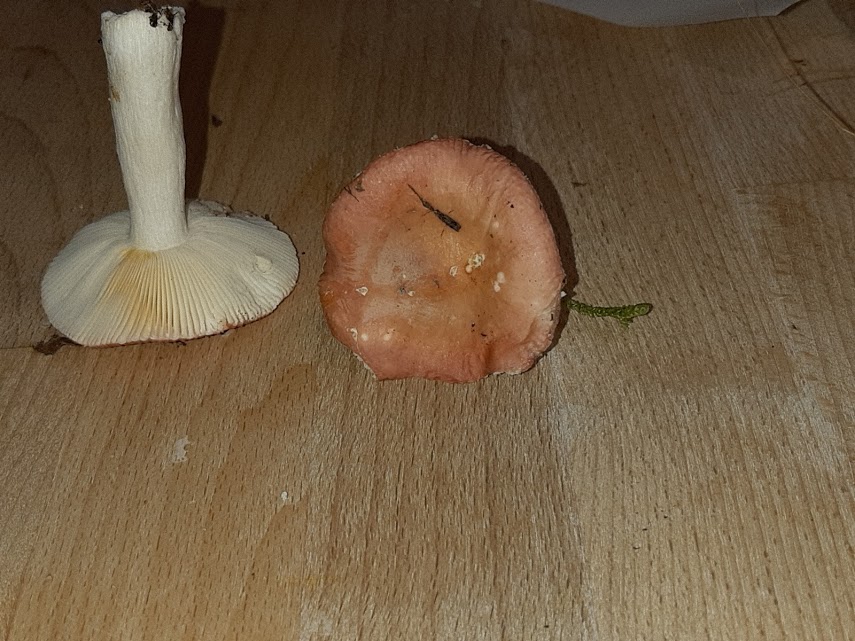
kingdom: Fungi
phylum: Basidiomycota
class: Agaricomycetes
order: Russulales
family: Russulaceae
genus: Russula
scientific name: Russula
